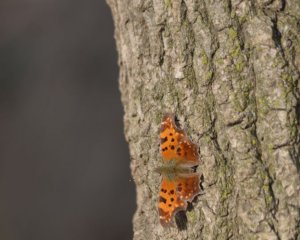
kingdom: Animalia
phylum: Arthropoda
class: Insecta
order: Lepidoptera
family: Nymphalidae
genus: Polygonia
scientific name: Polygonia comma
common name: Eastern Comma
